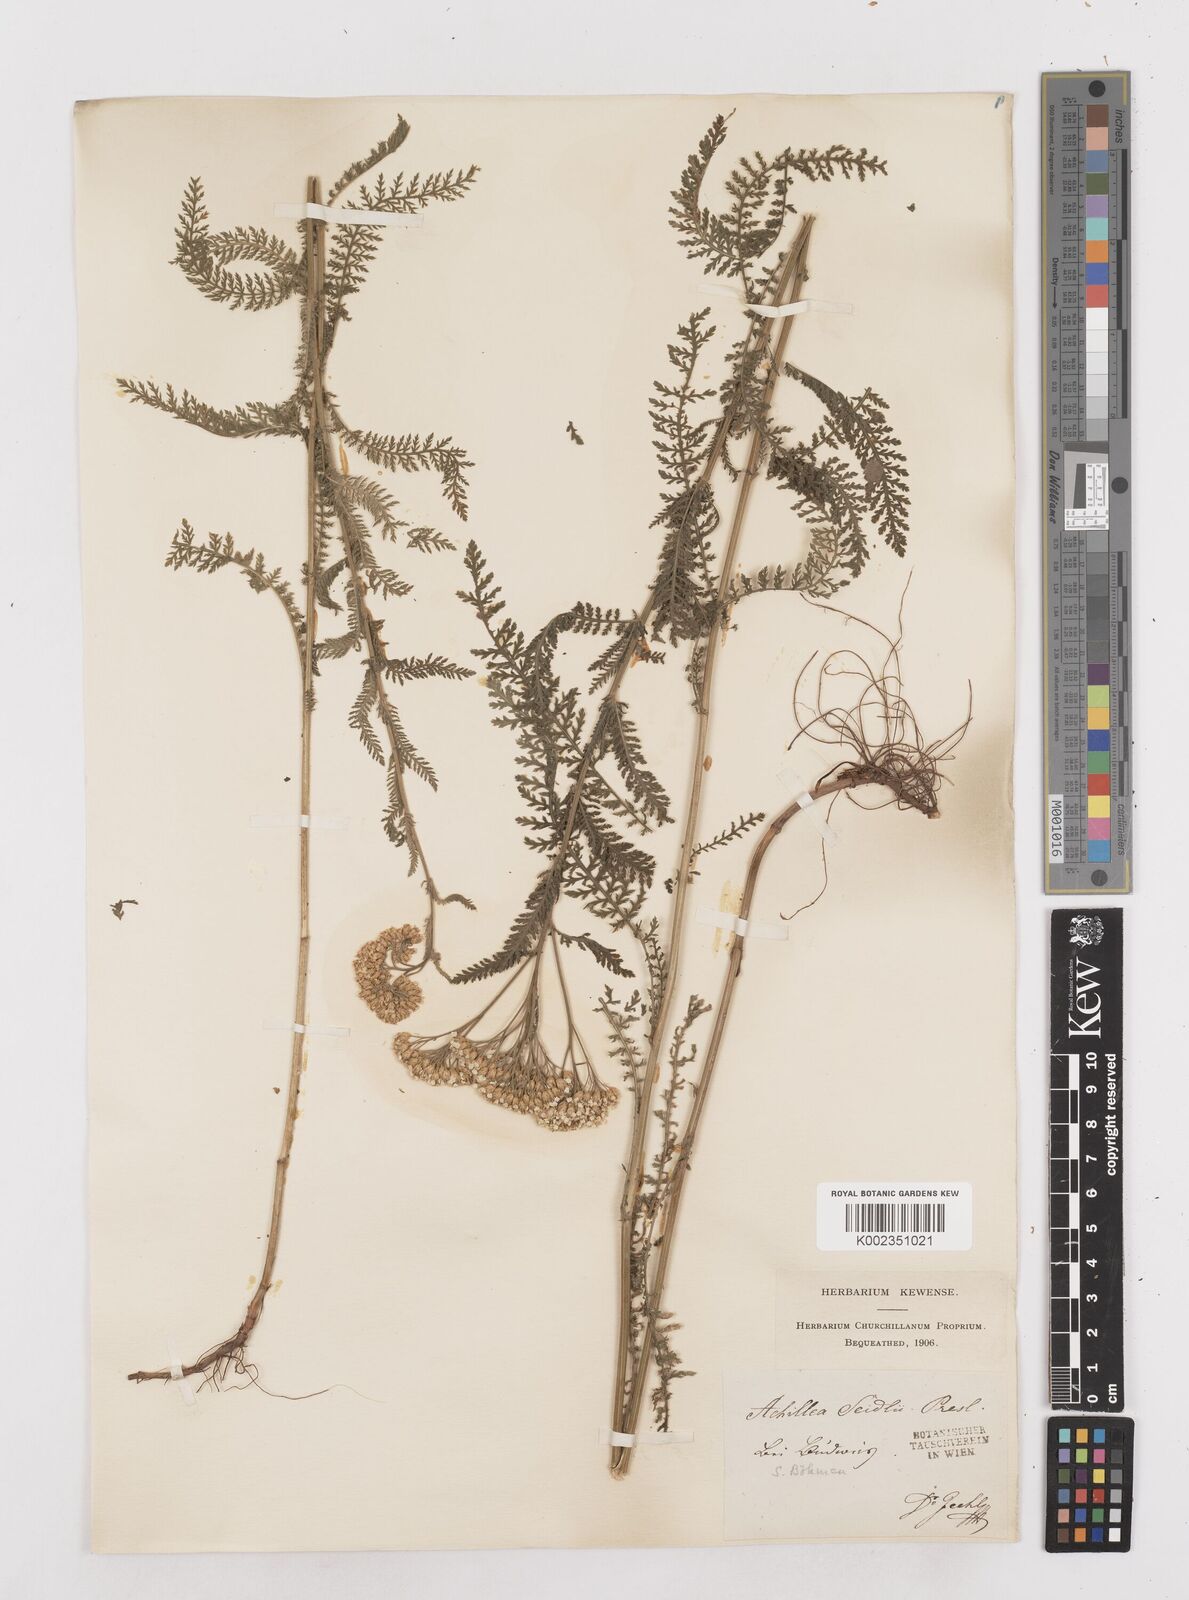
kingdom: Plantae
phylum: Tracheophyta
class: Magnoliopsida
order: Asterales
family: Asteraceae
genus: Achillea
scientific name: Achillea millefolium
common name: Yarrow
